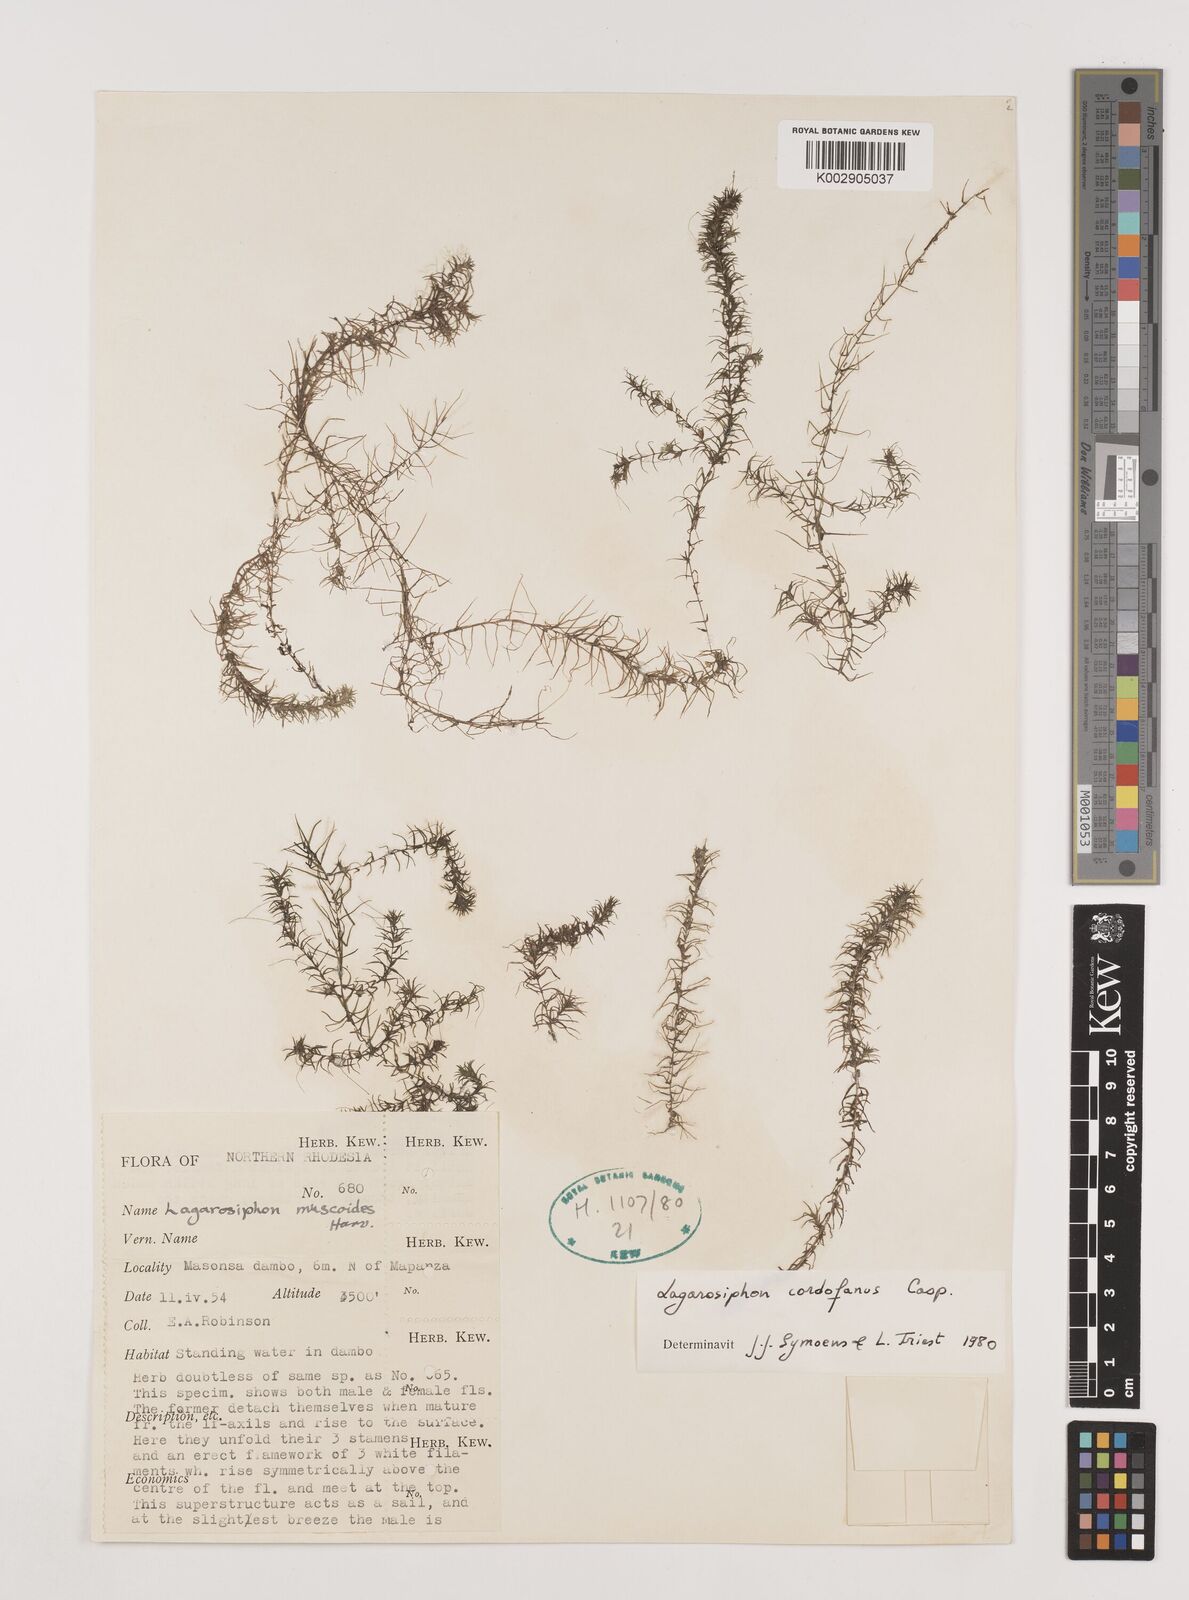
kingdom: Plantae
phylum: Tracheophyta
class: Liliopsida
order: Alismatales
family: Hydrocharitaceae
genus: Lagarosiphon
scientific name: Lagarosiphon cordofanus
